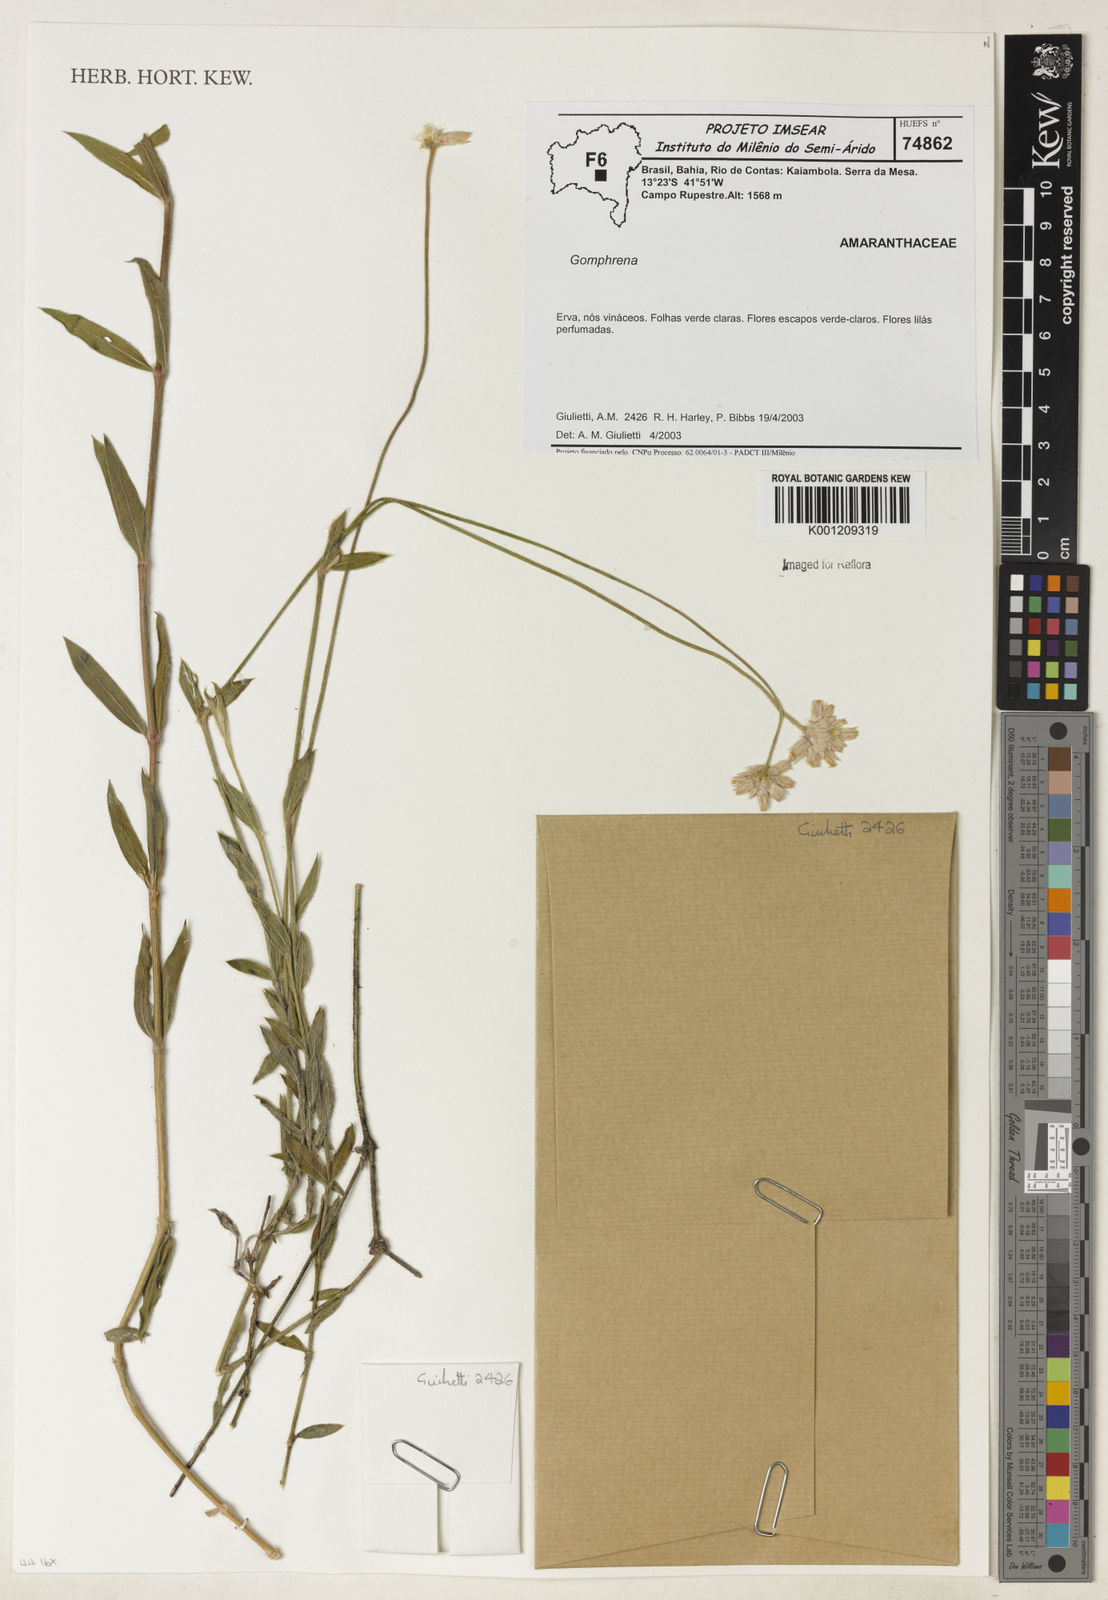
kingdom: Plantae
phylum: Tracheophyta
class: Magnoliopsida
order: Caryophyllales
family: Amaranthaceae
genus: Gomphrena
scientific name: Gomphrena
